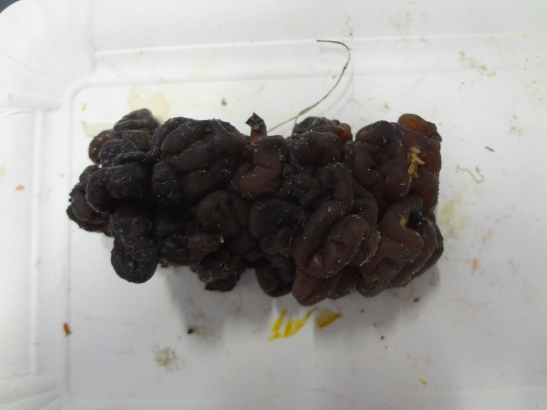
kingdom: Fungi
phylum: Ascomycota
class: Leotiomycetes
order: Helotiales
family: Gelatinodiscaceae
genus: Ascotremella
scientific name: Ascotremella faginea
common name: hjerne-bævreskive
